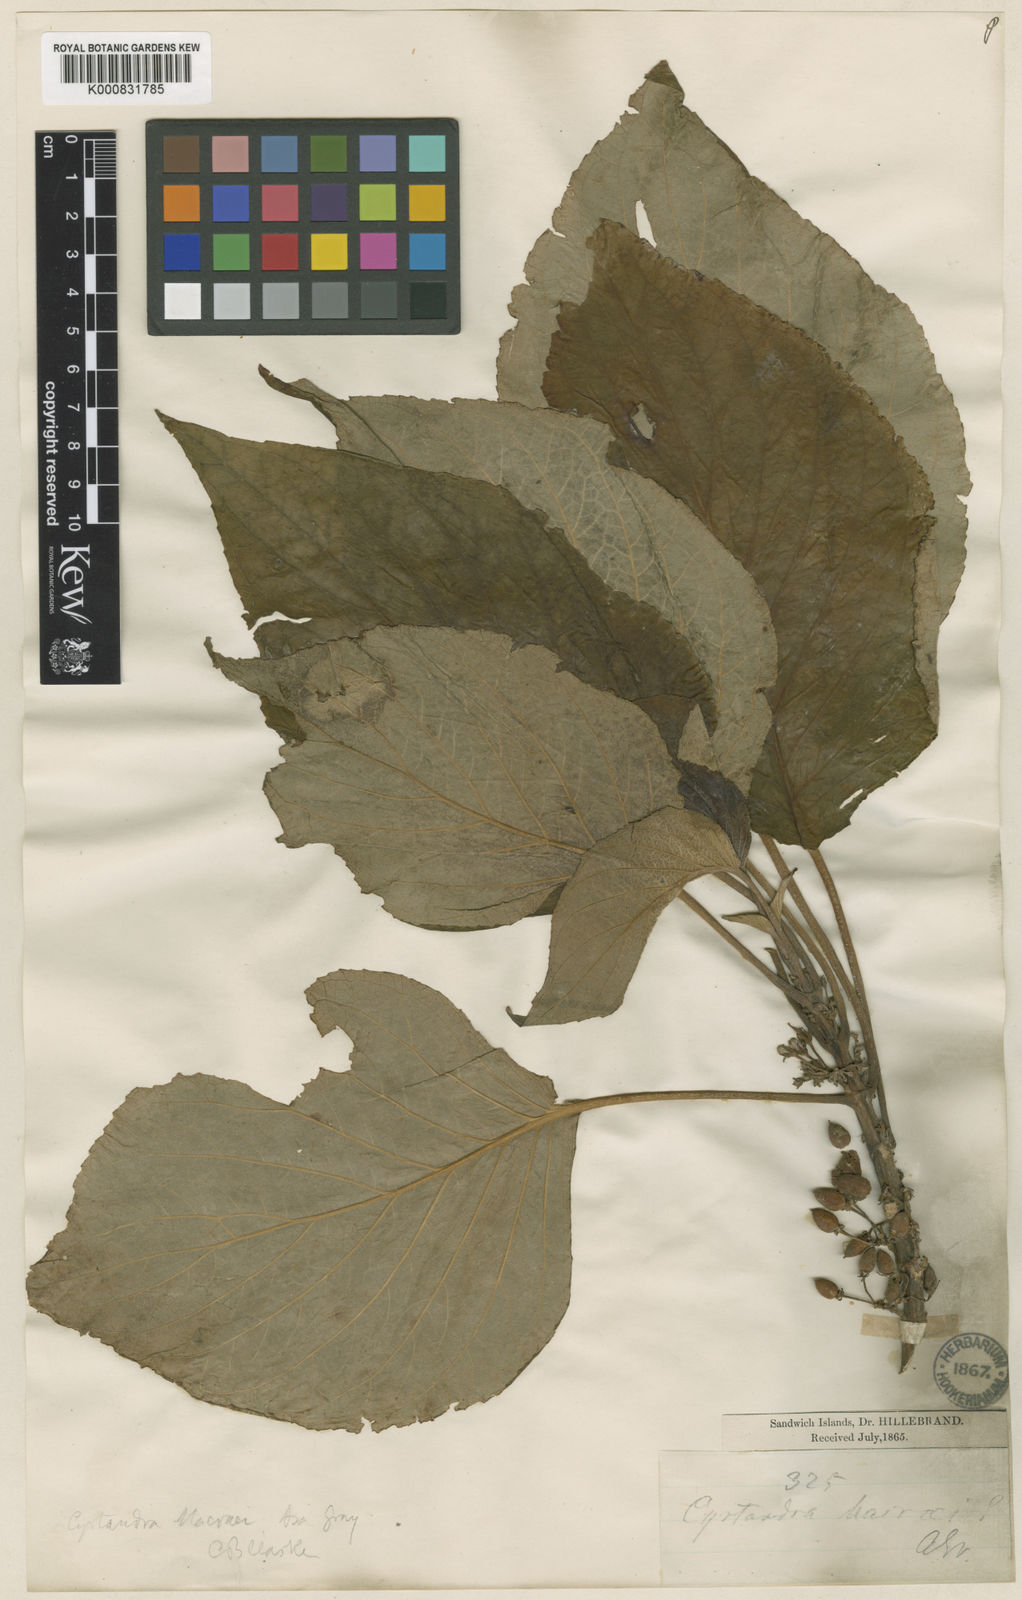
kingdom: Plantae
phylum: Tracheophyta
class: Magnoliopsida
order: Lamiales
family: Gesneriaceae
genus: Cyrtandra
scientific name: Cyrtandra macraei
